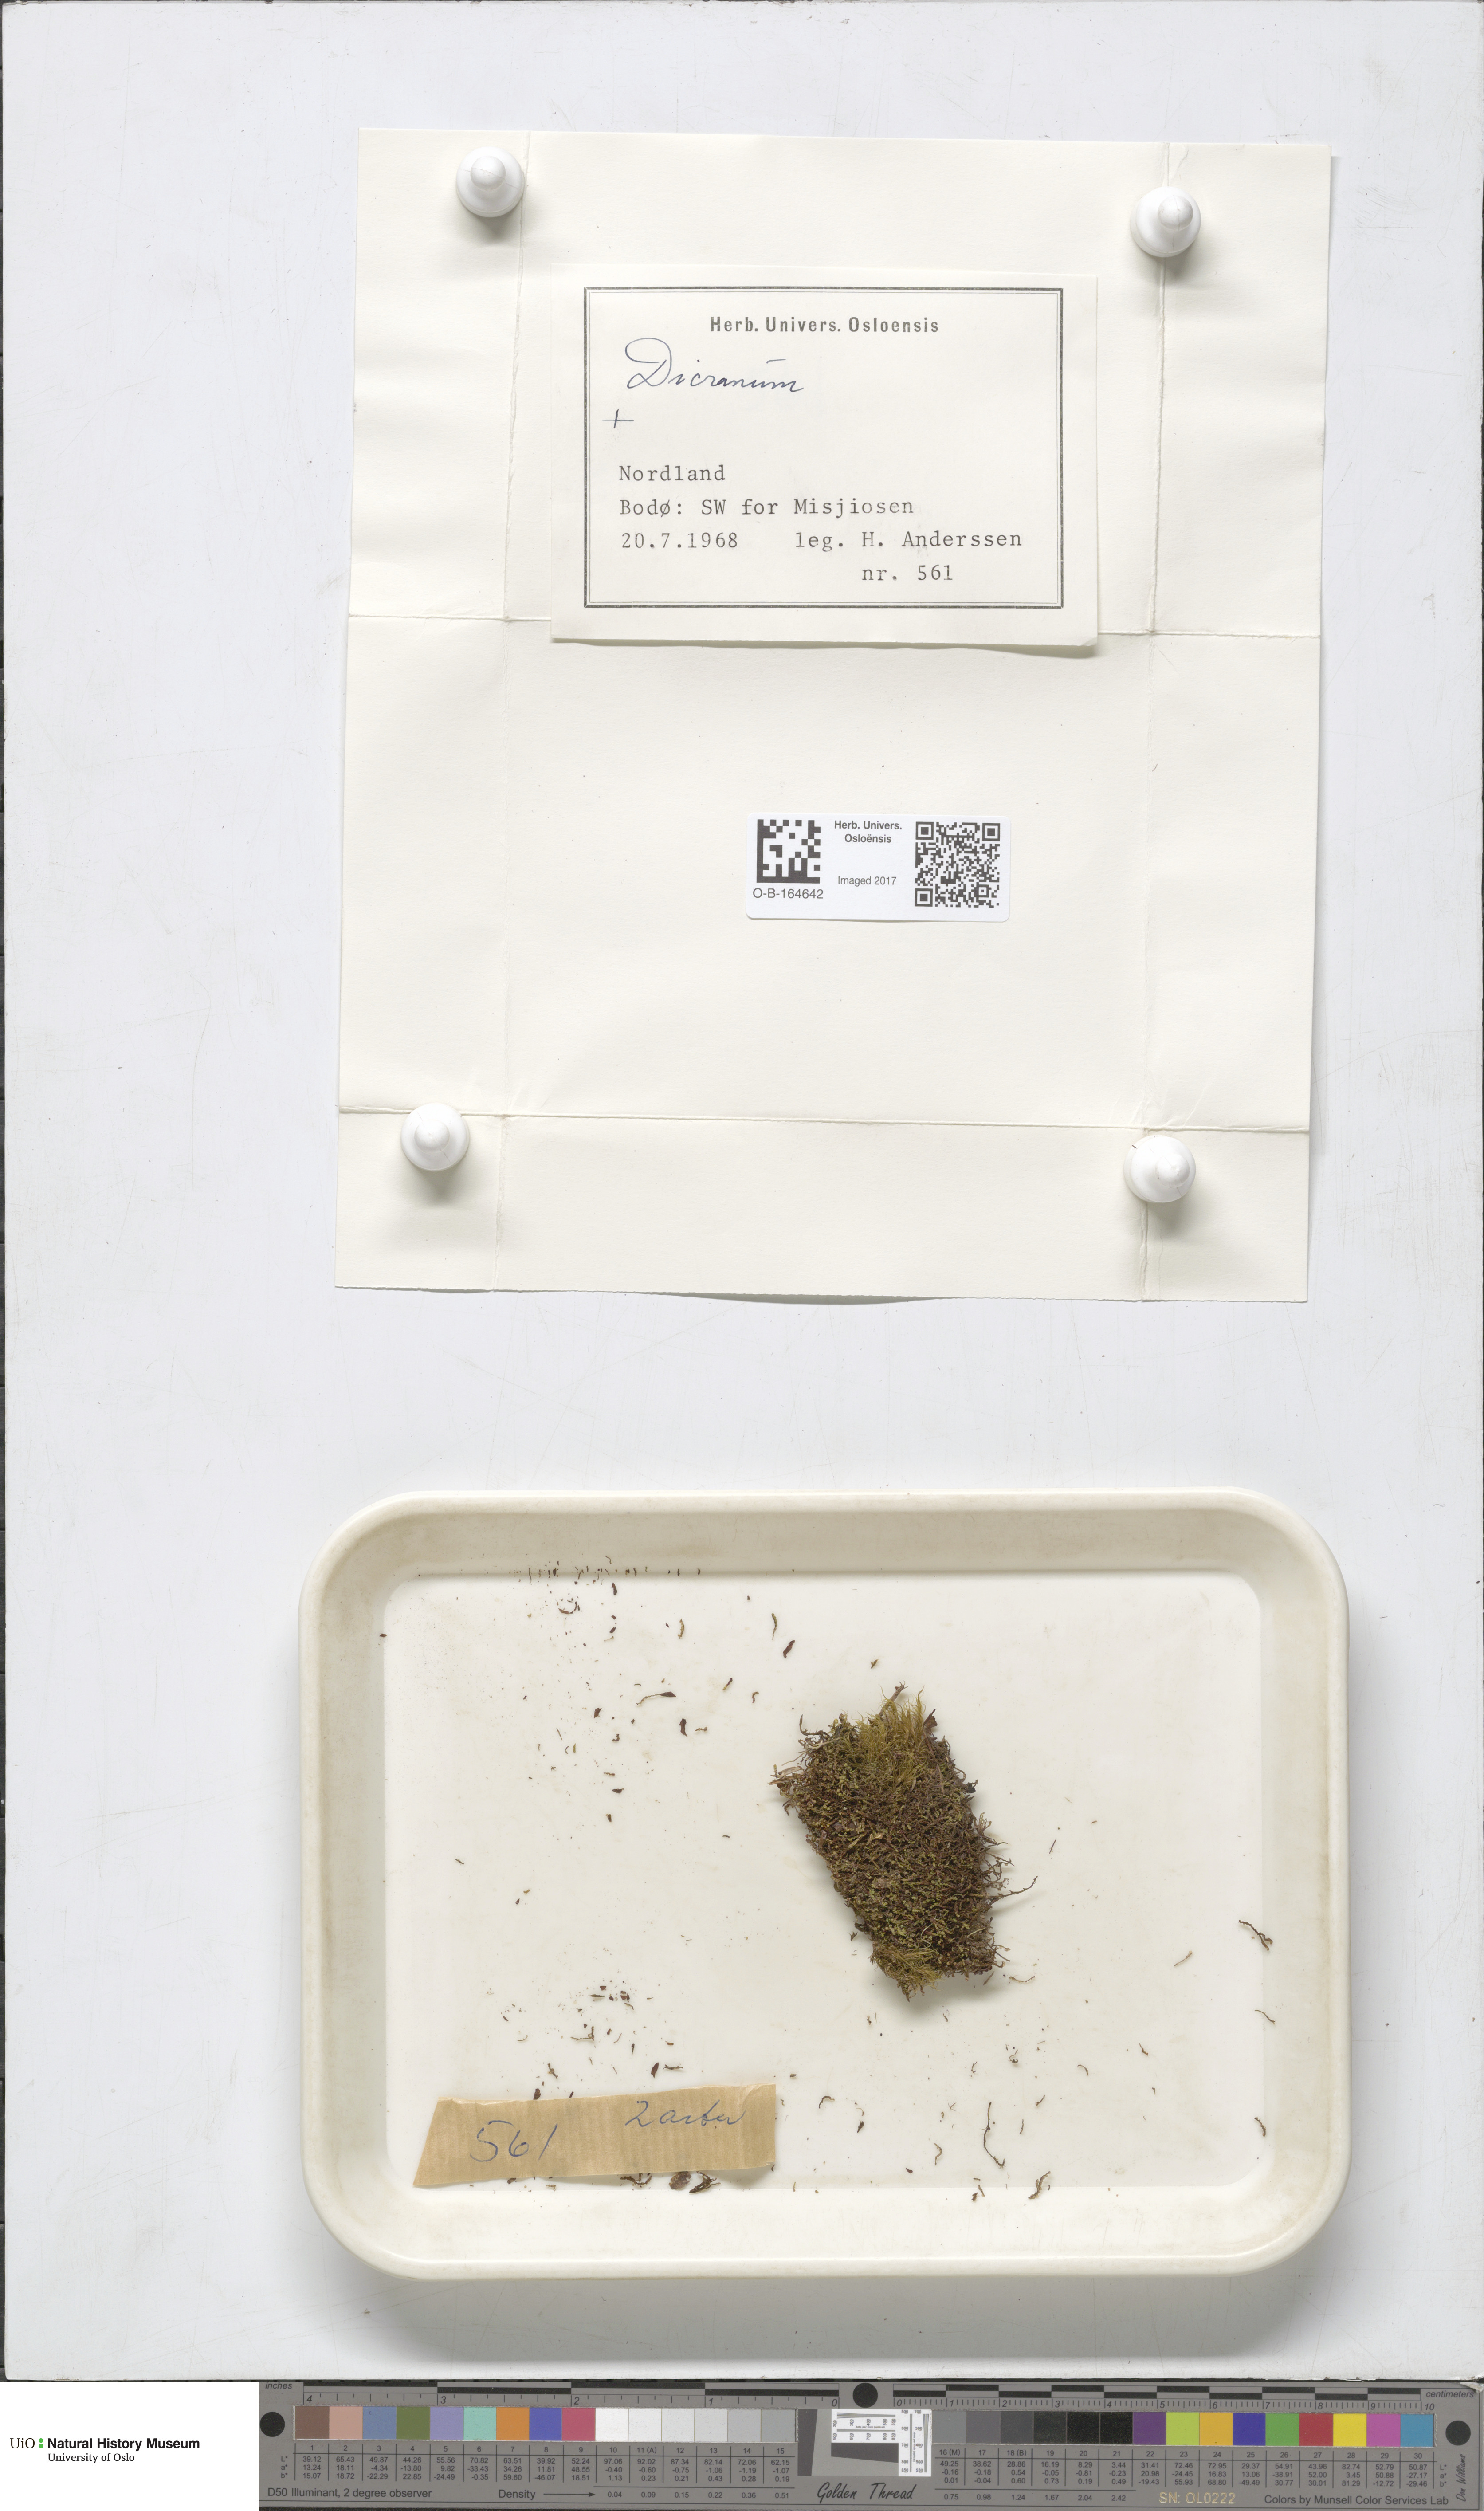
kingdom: Plantae
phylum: Bryophyta
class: Bryopsida
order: Dicranales
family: Dicranaceae
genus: Dicranum
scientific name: Dicranum
